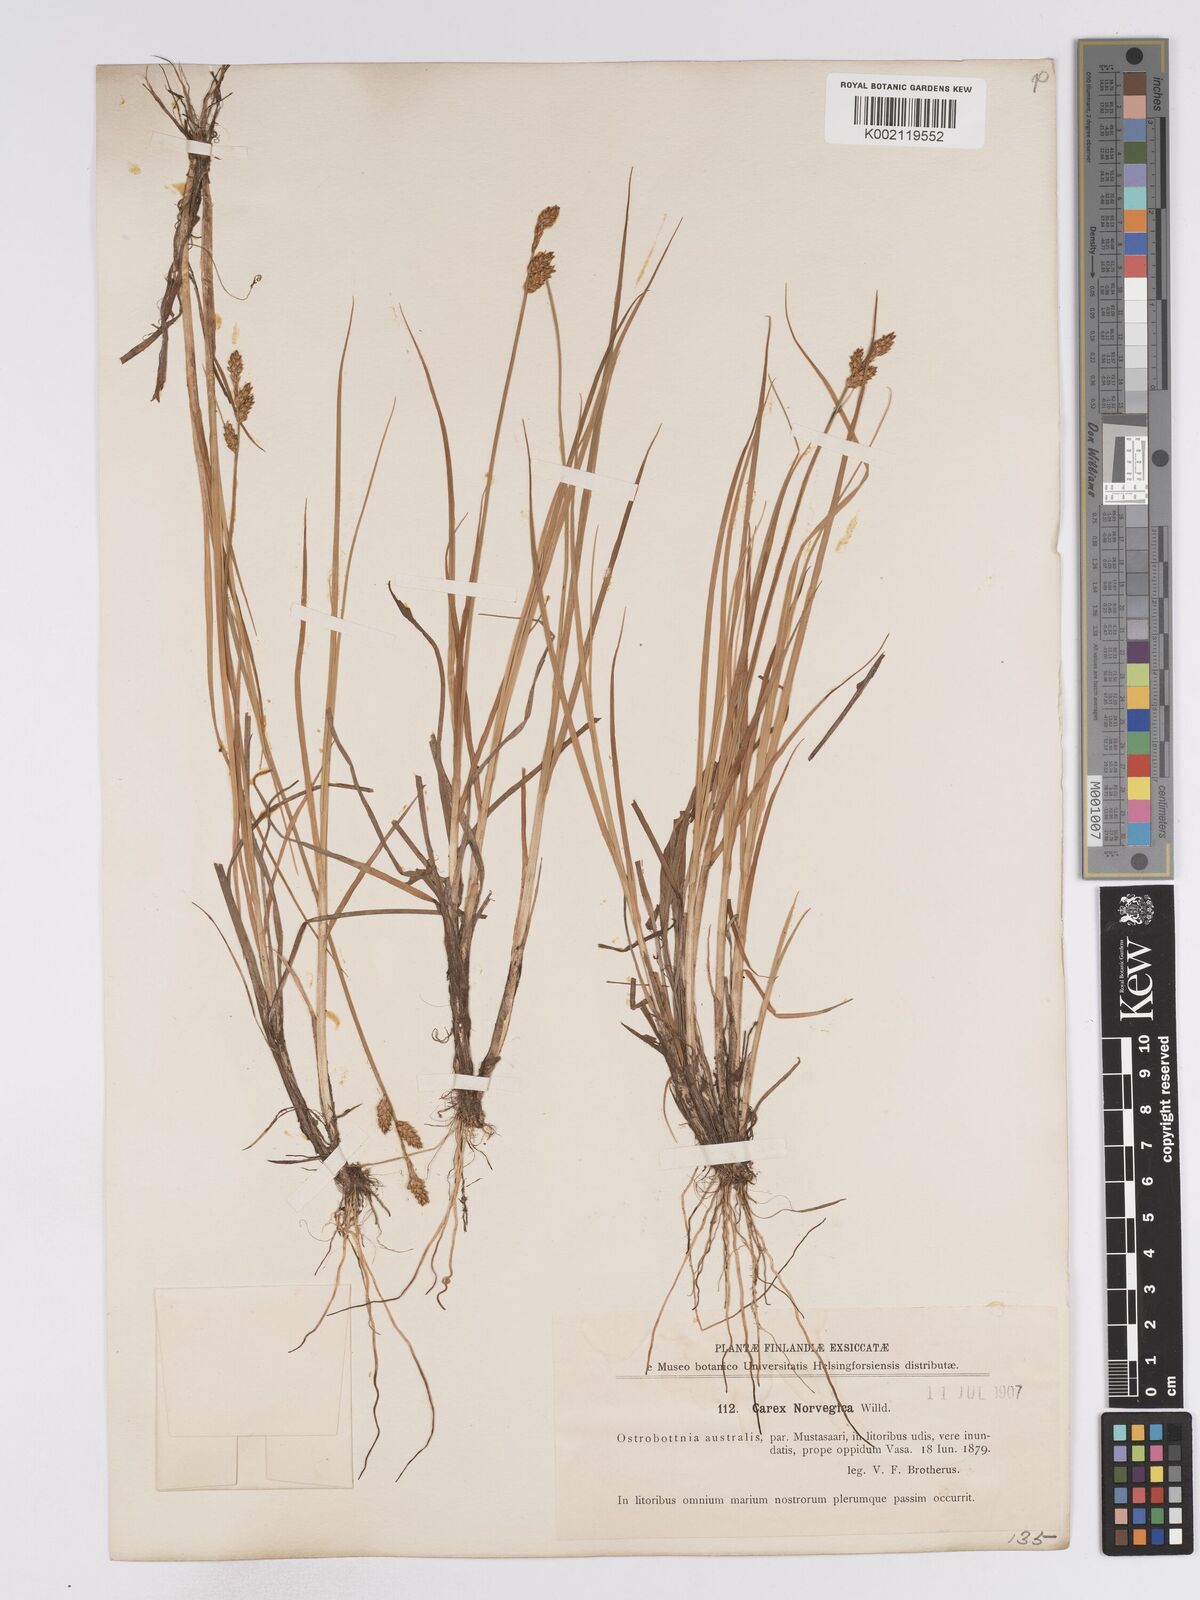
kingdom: Plantae
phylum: Tracheophyta
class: Liliopsida
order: Poales
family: Cyperaceae
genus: Carex
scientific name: Carex mackenziei
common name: Mackenzie's sedge
